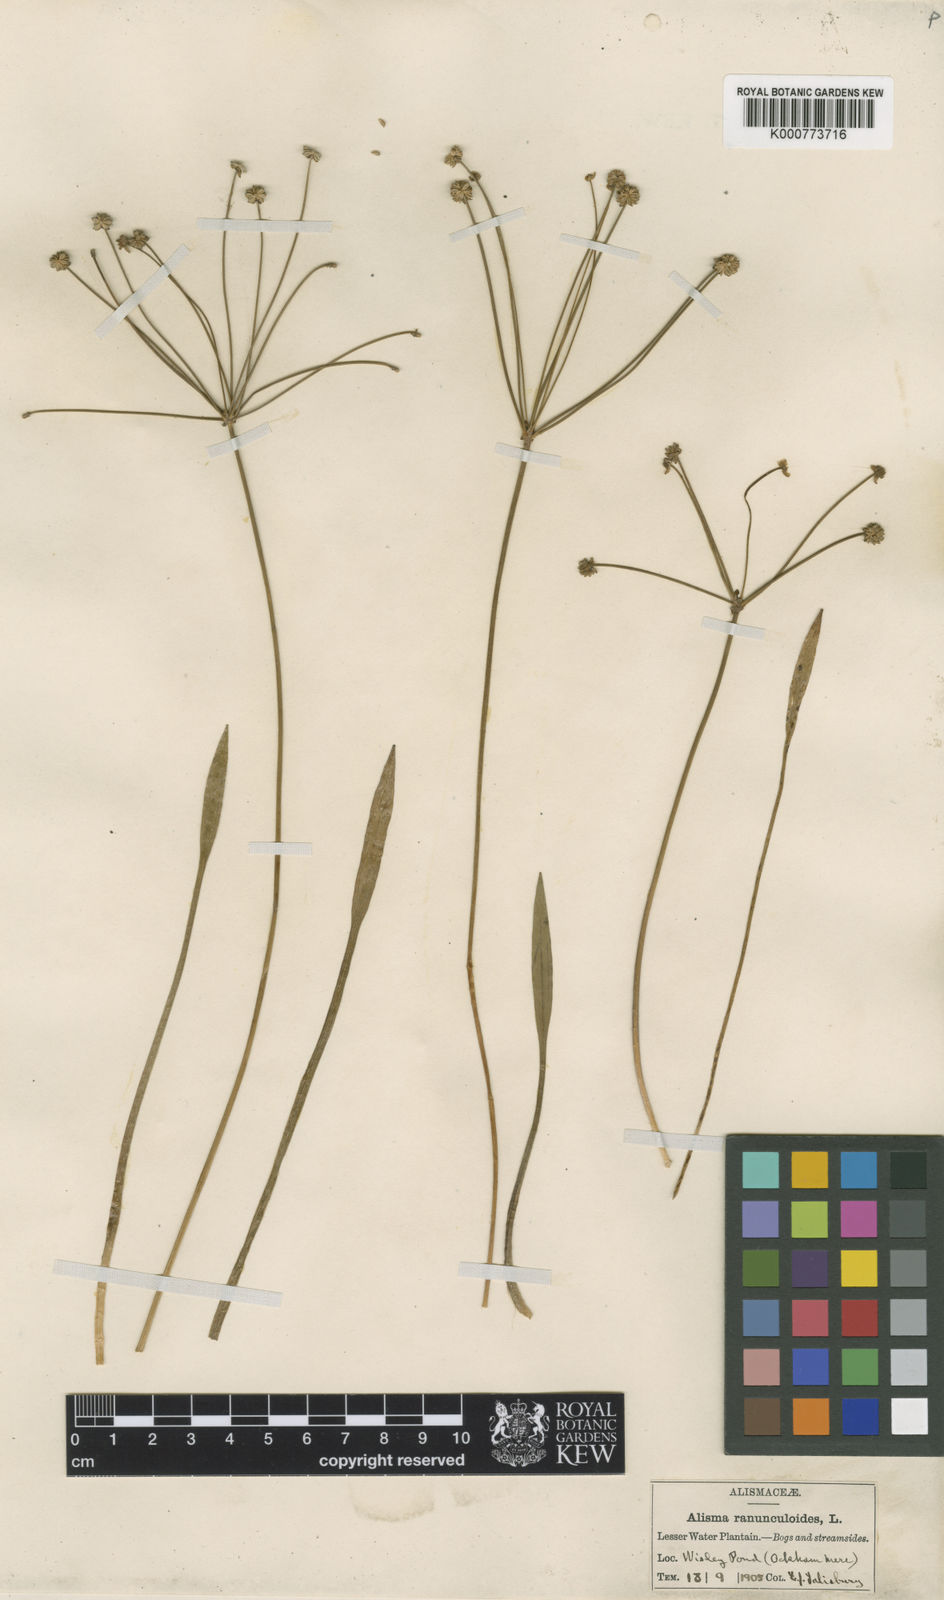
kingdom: Plantae
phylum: Tracheophyta
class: Liliopsida
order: Alismatales
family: Alismataceae
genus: Baldellia
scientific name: Baldellia ranunculoides
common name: Lesser water-plantain
